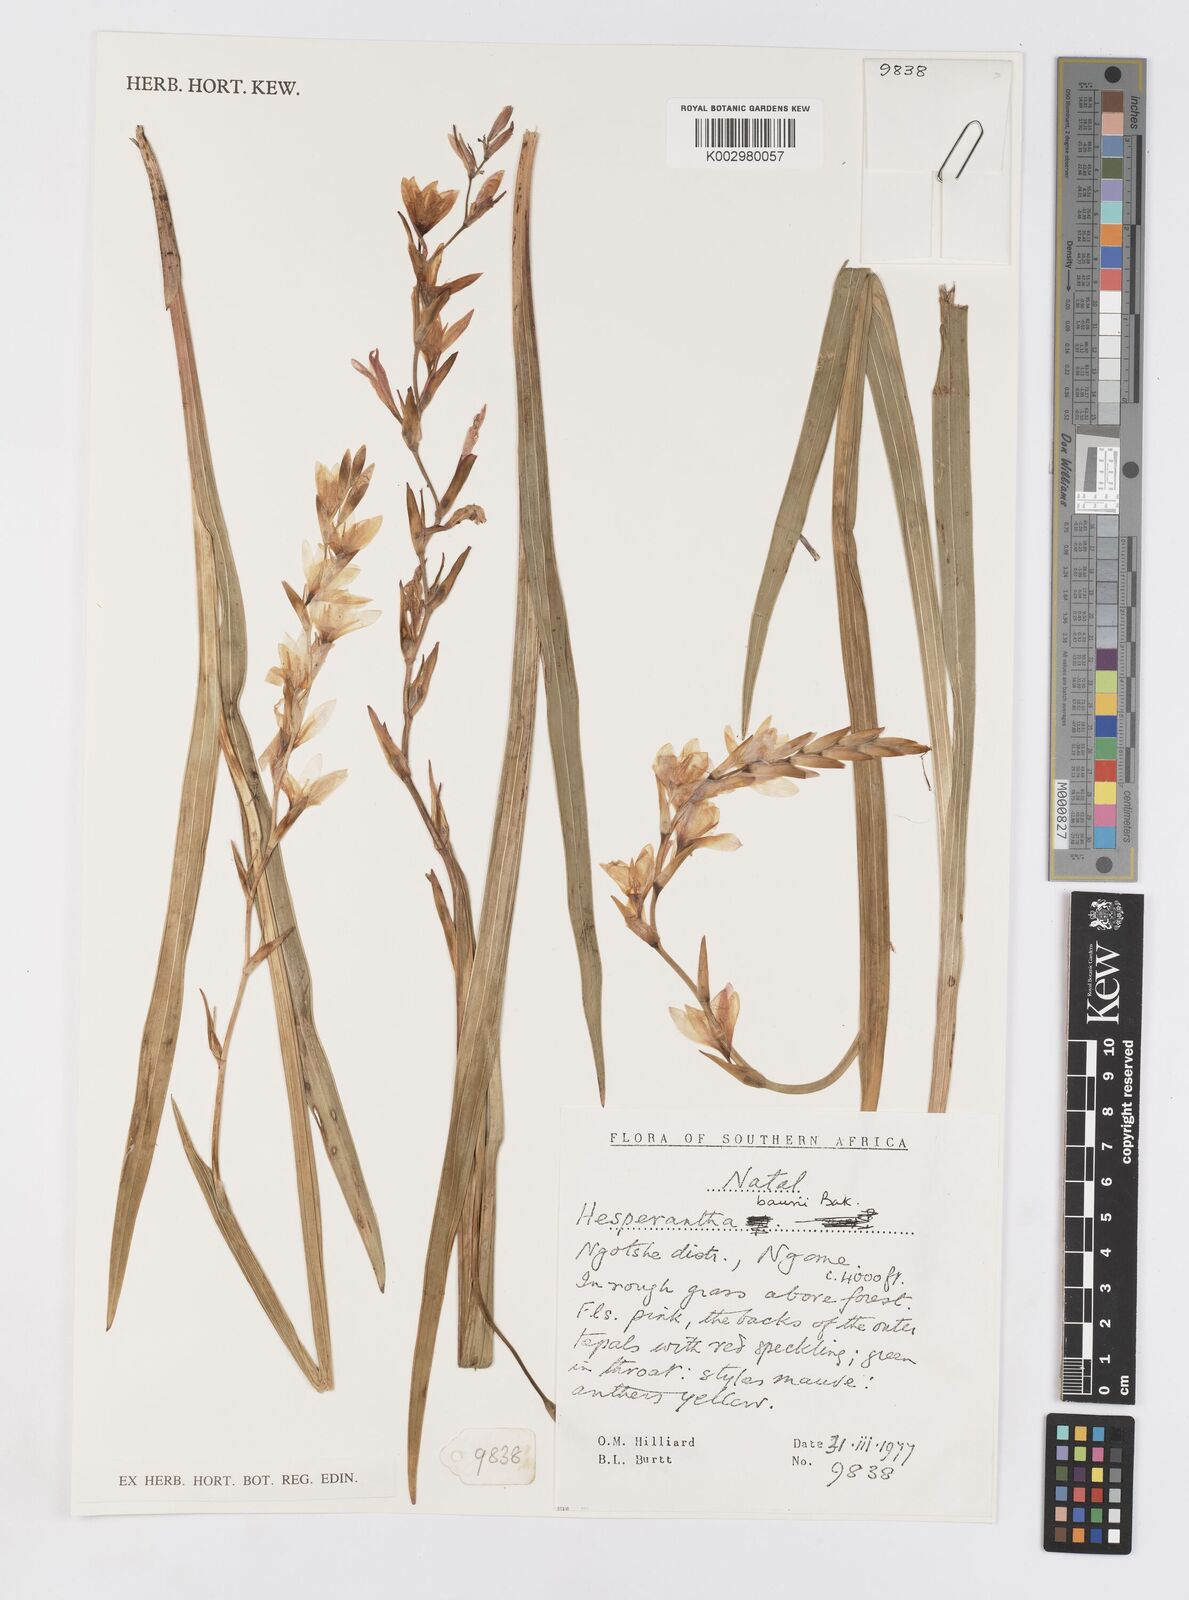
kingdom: Plantae
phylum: Tracheophyta
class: Liliopsida
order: Asparagales
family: Iridaceae
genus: Hesperantha
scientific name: Hesperantha baurii
